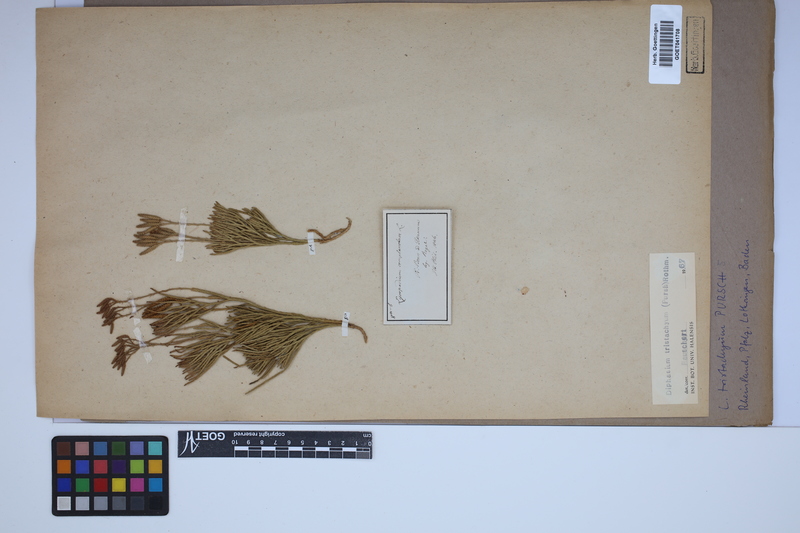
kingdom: Plantae
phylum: Tracheophyta
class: Lycopodiopsida
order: Lycopodiales
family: Lycopodiaceae
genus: Diphasiastrum
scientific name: Diphasiastrum tristachyum
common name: Blue ground-cedar
